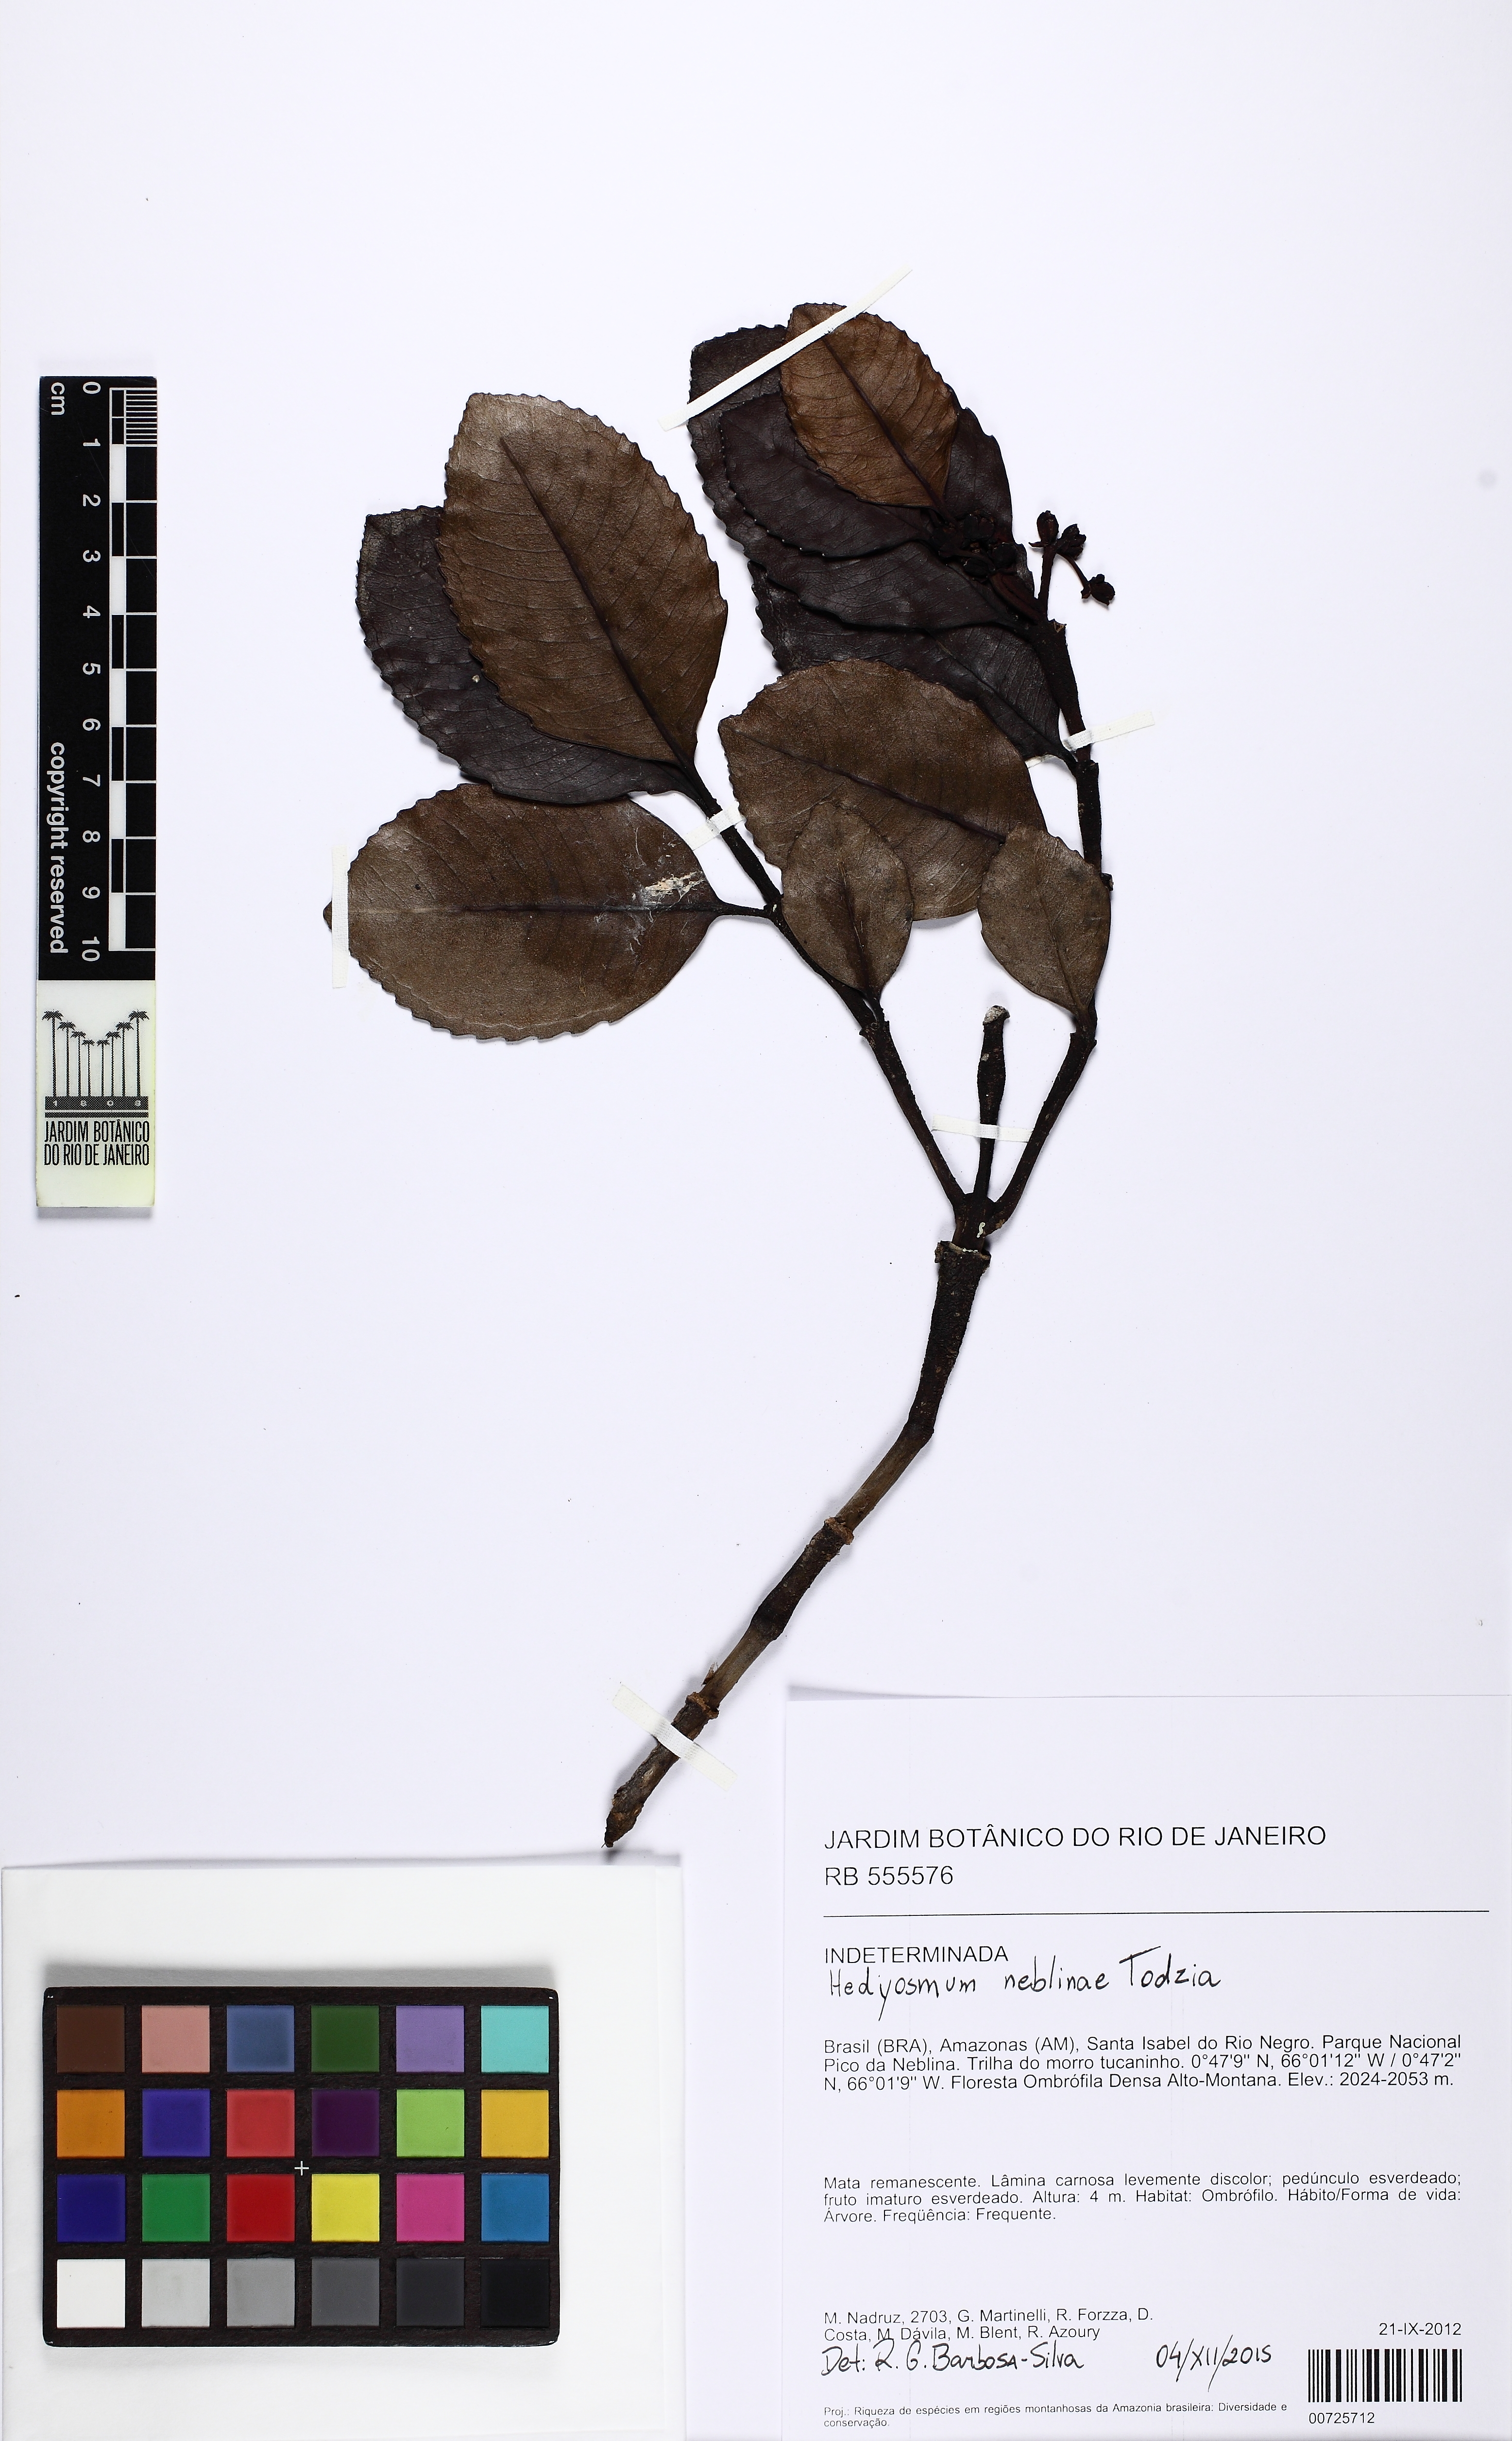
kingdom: Plantae
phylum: Tracheophyta
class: Magnoliopsida
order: Chloranthales
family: Chloranthaceae
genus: Hedyosmum
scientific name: Hedyosmum neblinae
